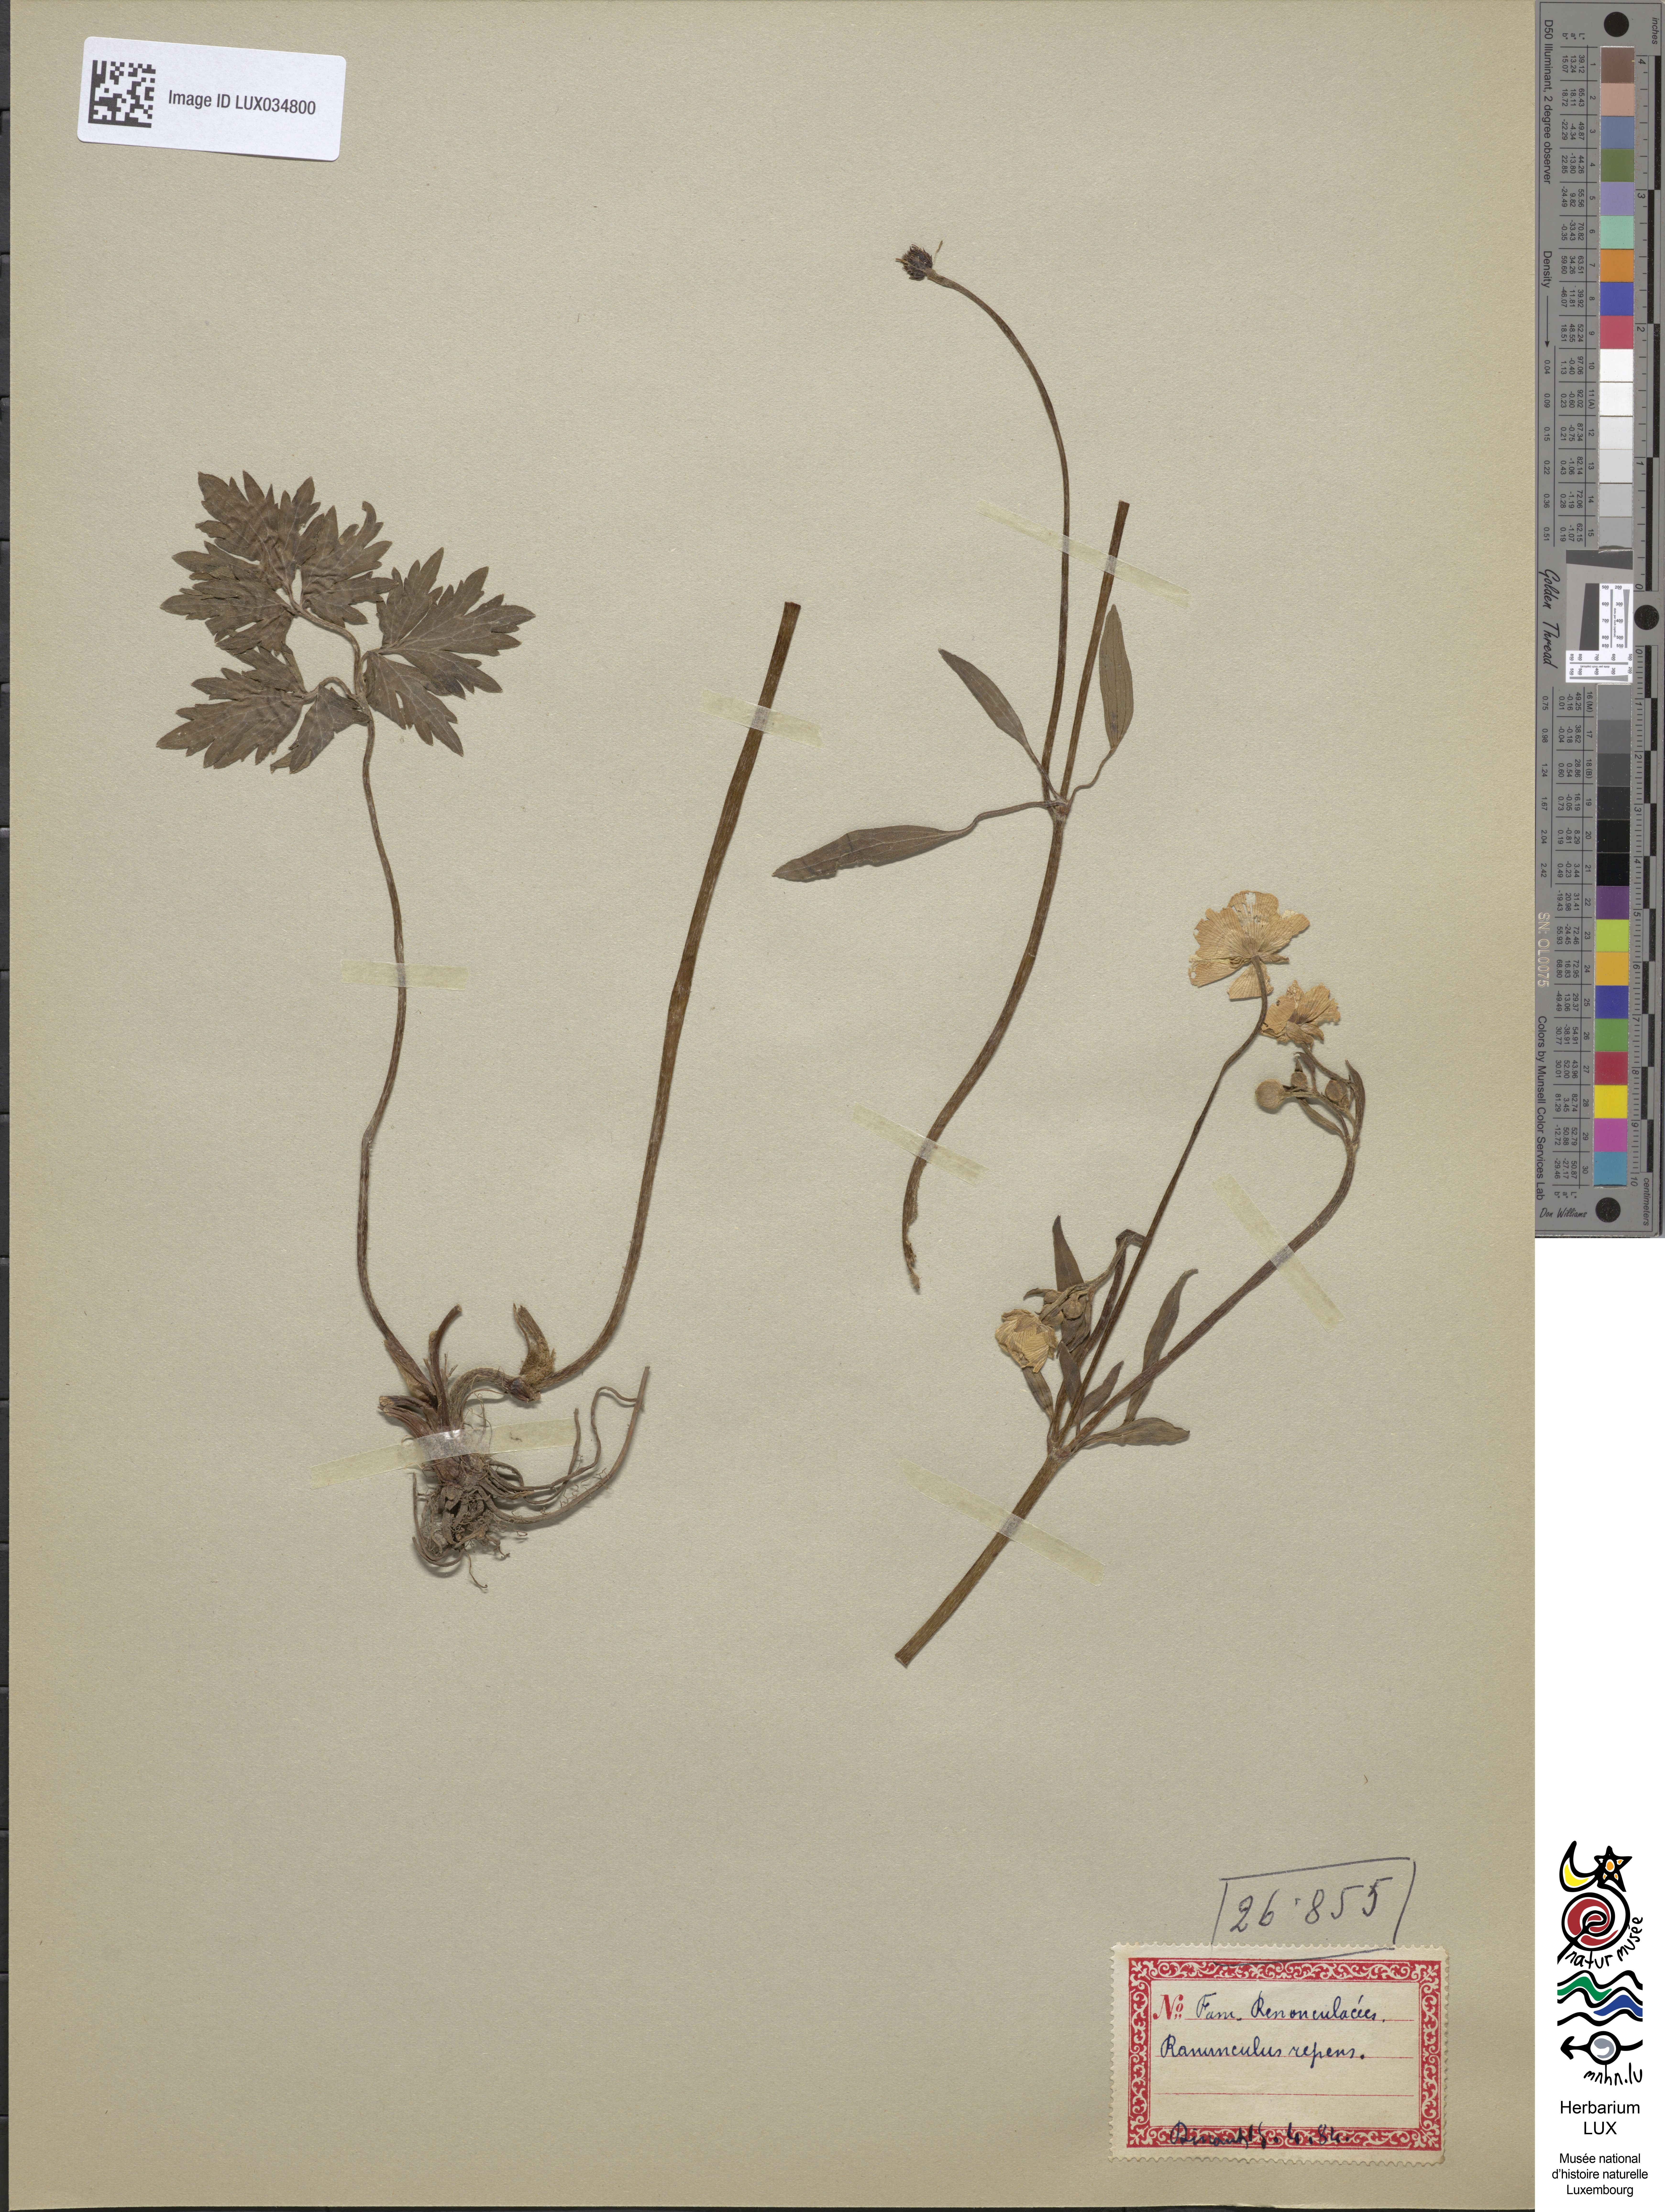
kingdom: Plantae
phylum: Tracheophyta
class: Magnoliopsida
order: Ranunculales
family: Ranunculaceae
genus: Ranunculus
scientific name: Ranunculus repens
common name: Creeping buttercup
